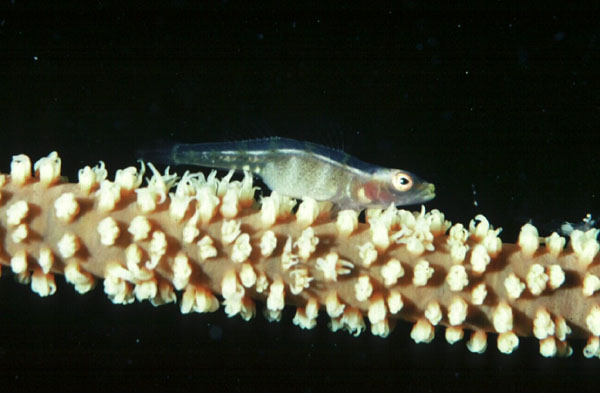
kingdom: Animalia
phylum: Chordata
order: Perciformes
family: Gobiidae
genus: Bryaninops
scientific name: Bryaninops yongei
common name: Whip coral goby
